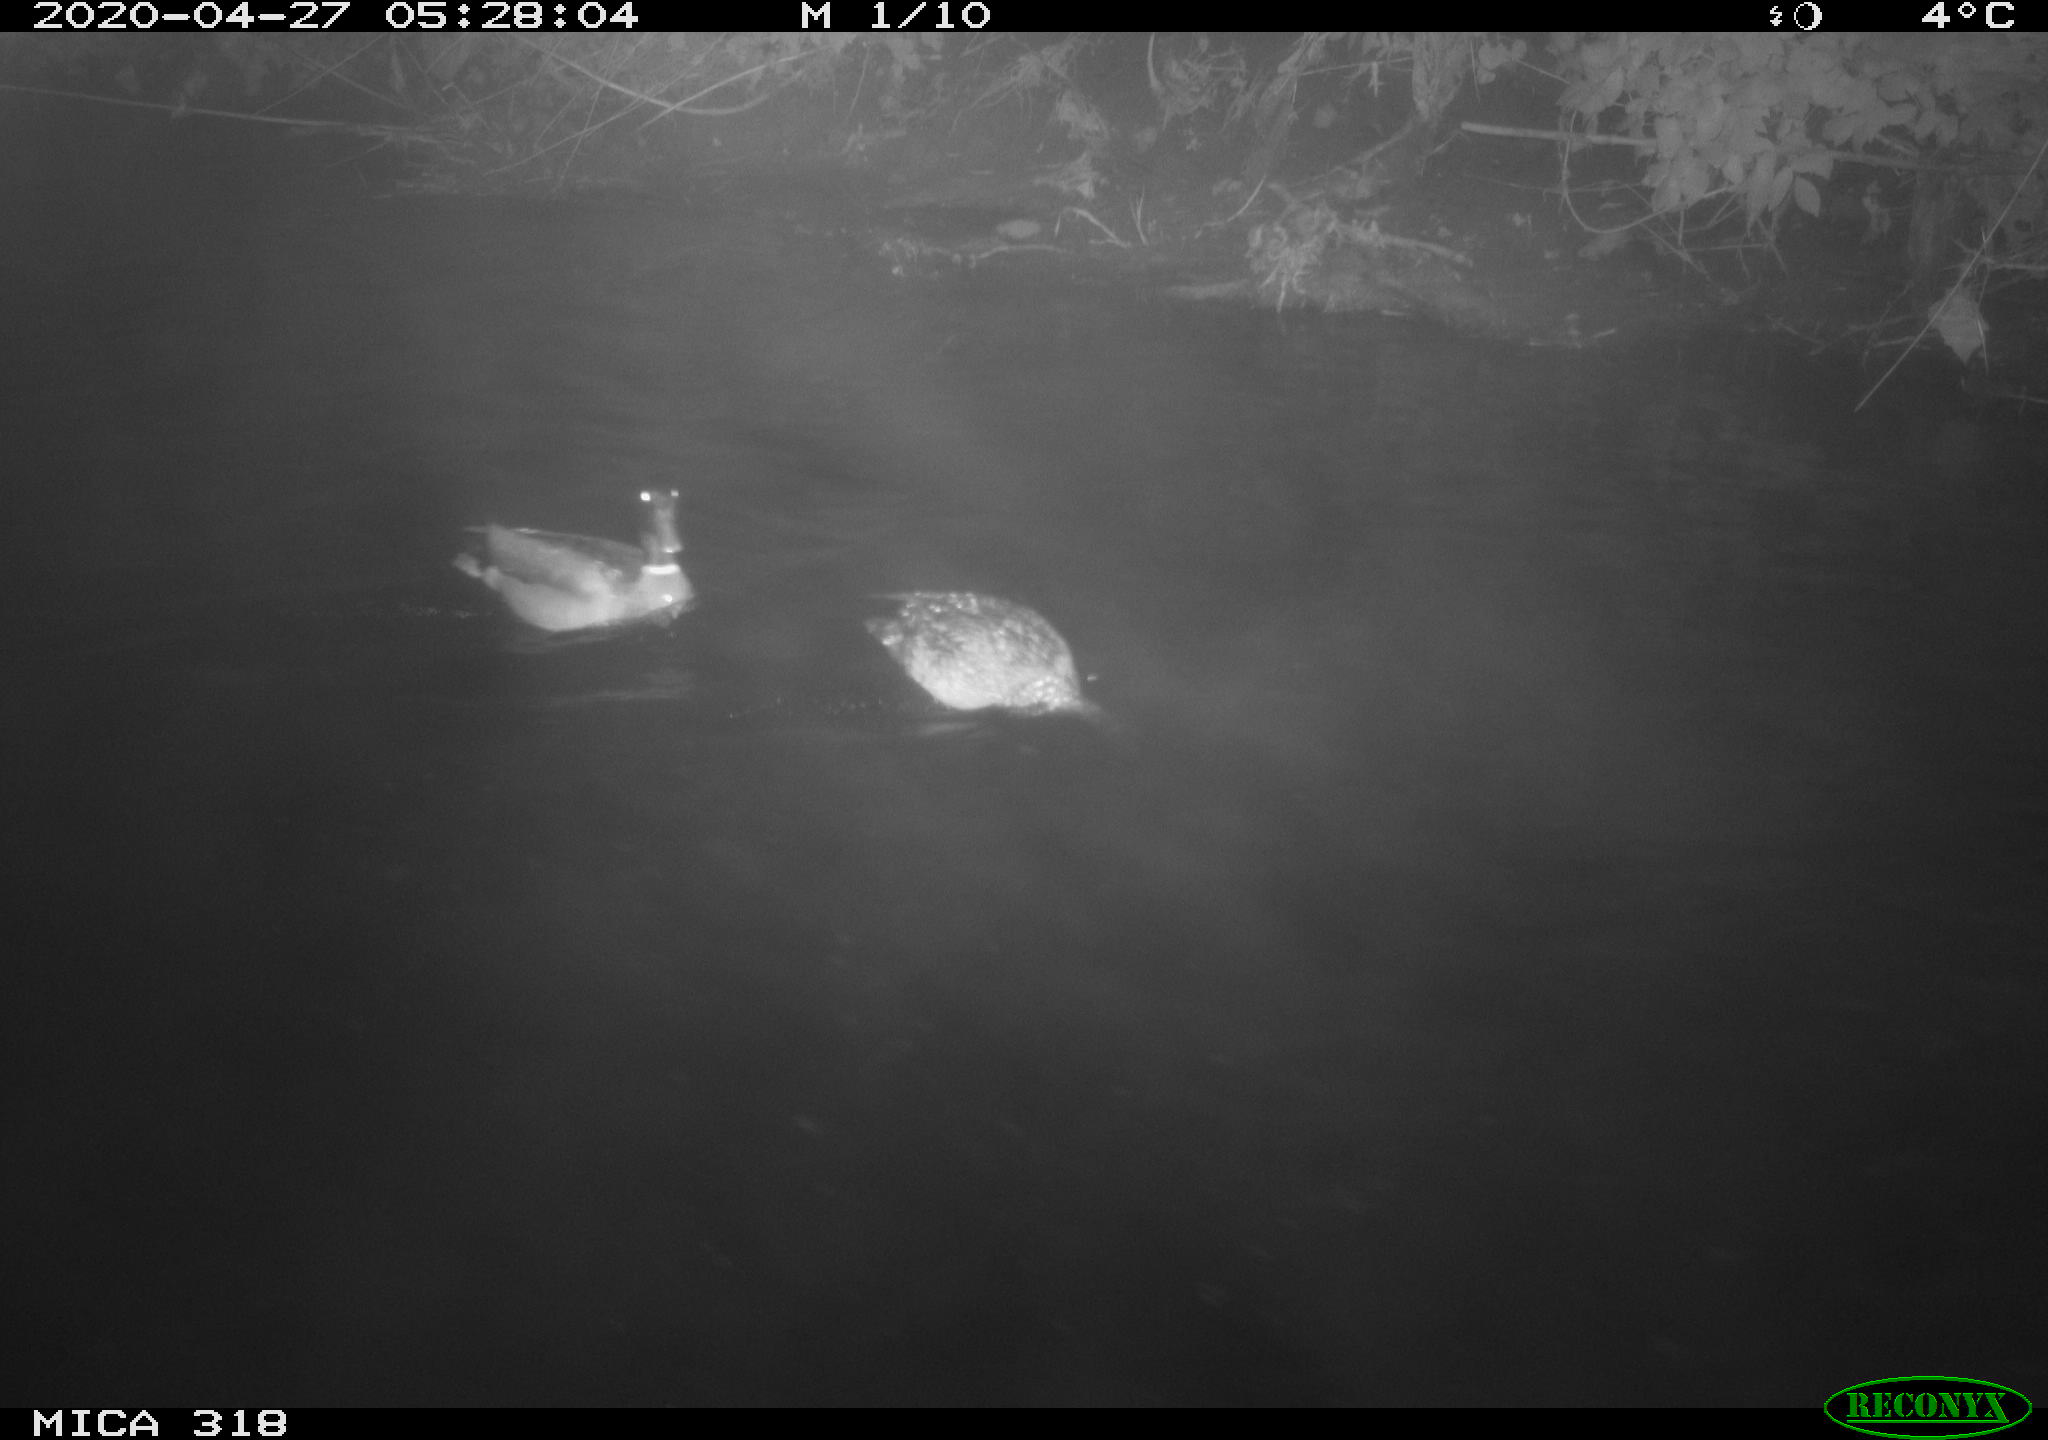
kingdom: Animalia
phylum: Chordata
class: Aves
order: Anseriformes
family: Anatidae
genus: Anas
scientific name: Anas platyrhynchos
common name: Mallard
